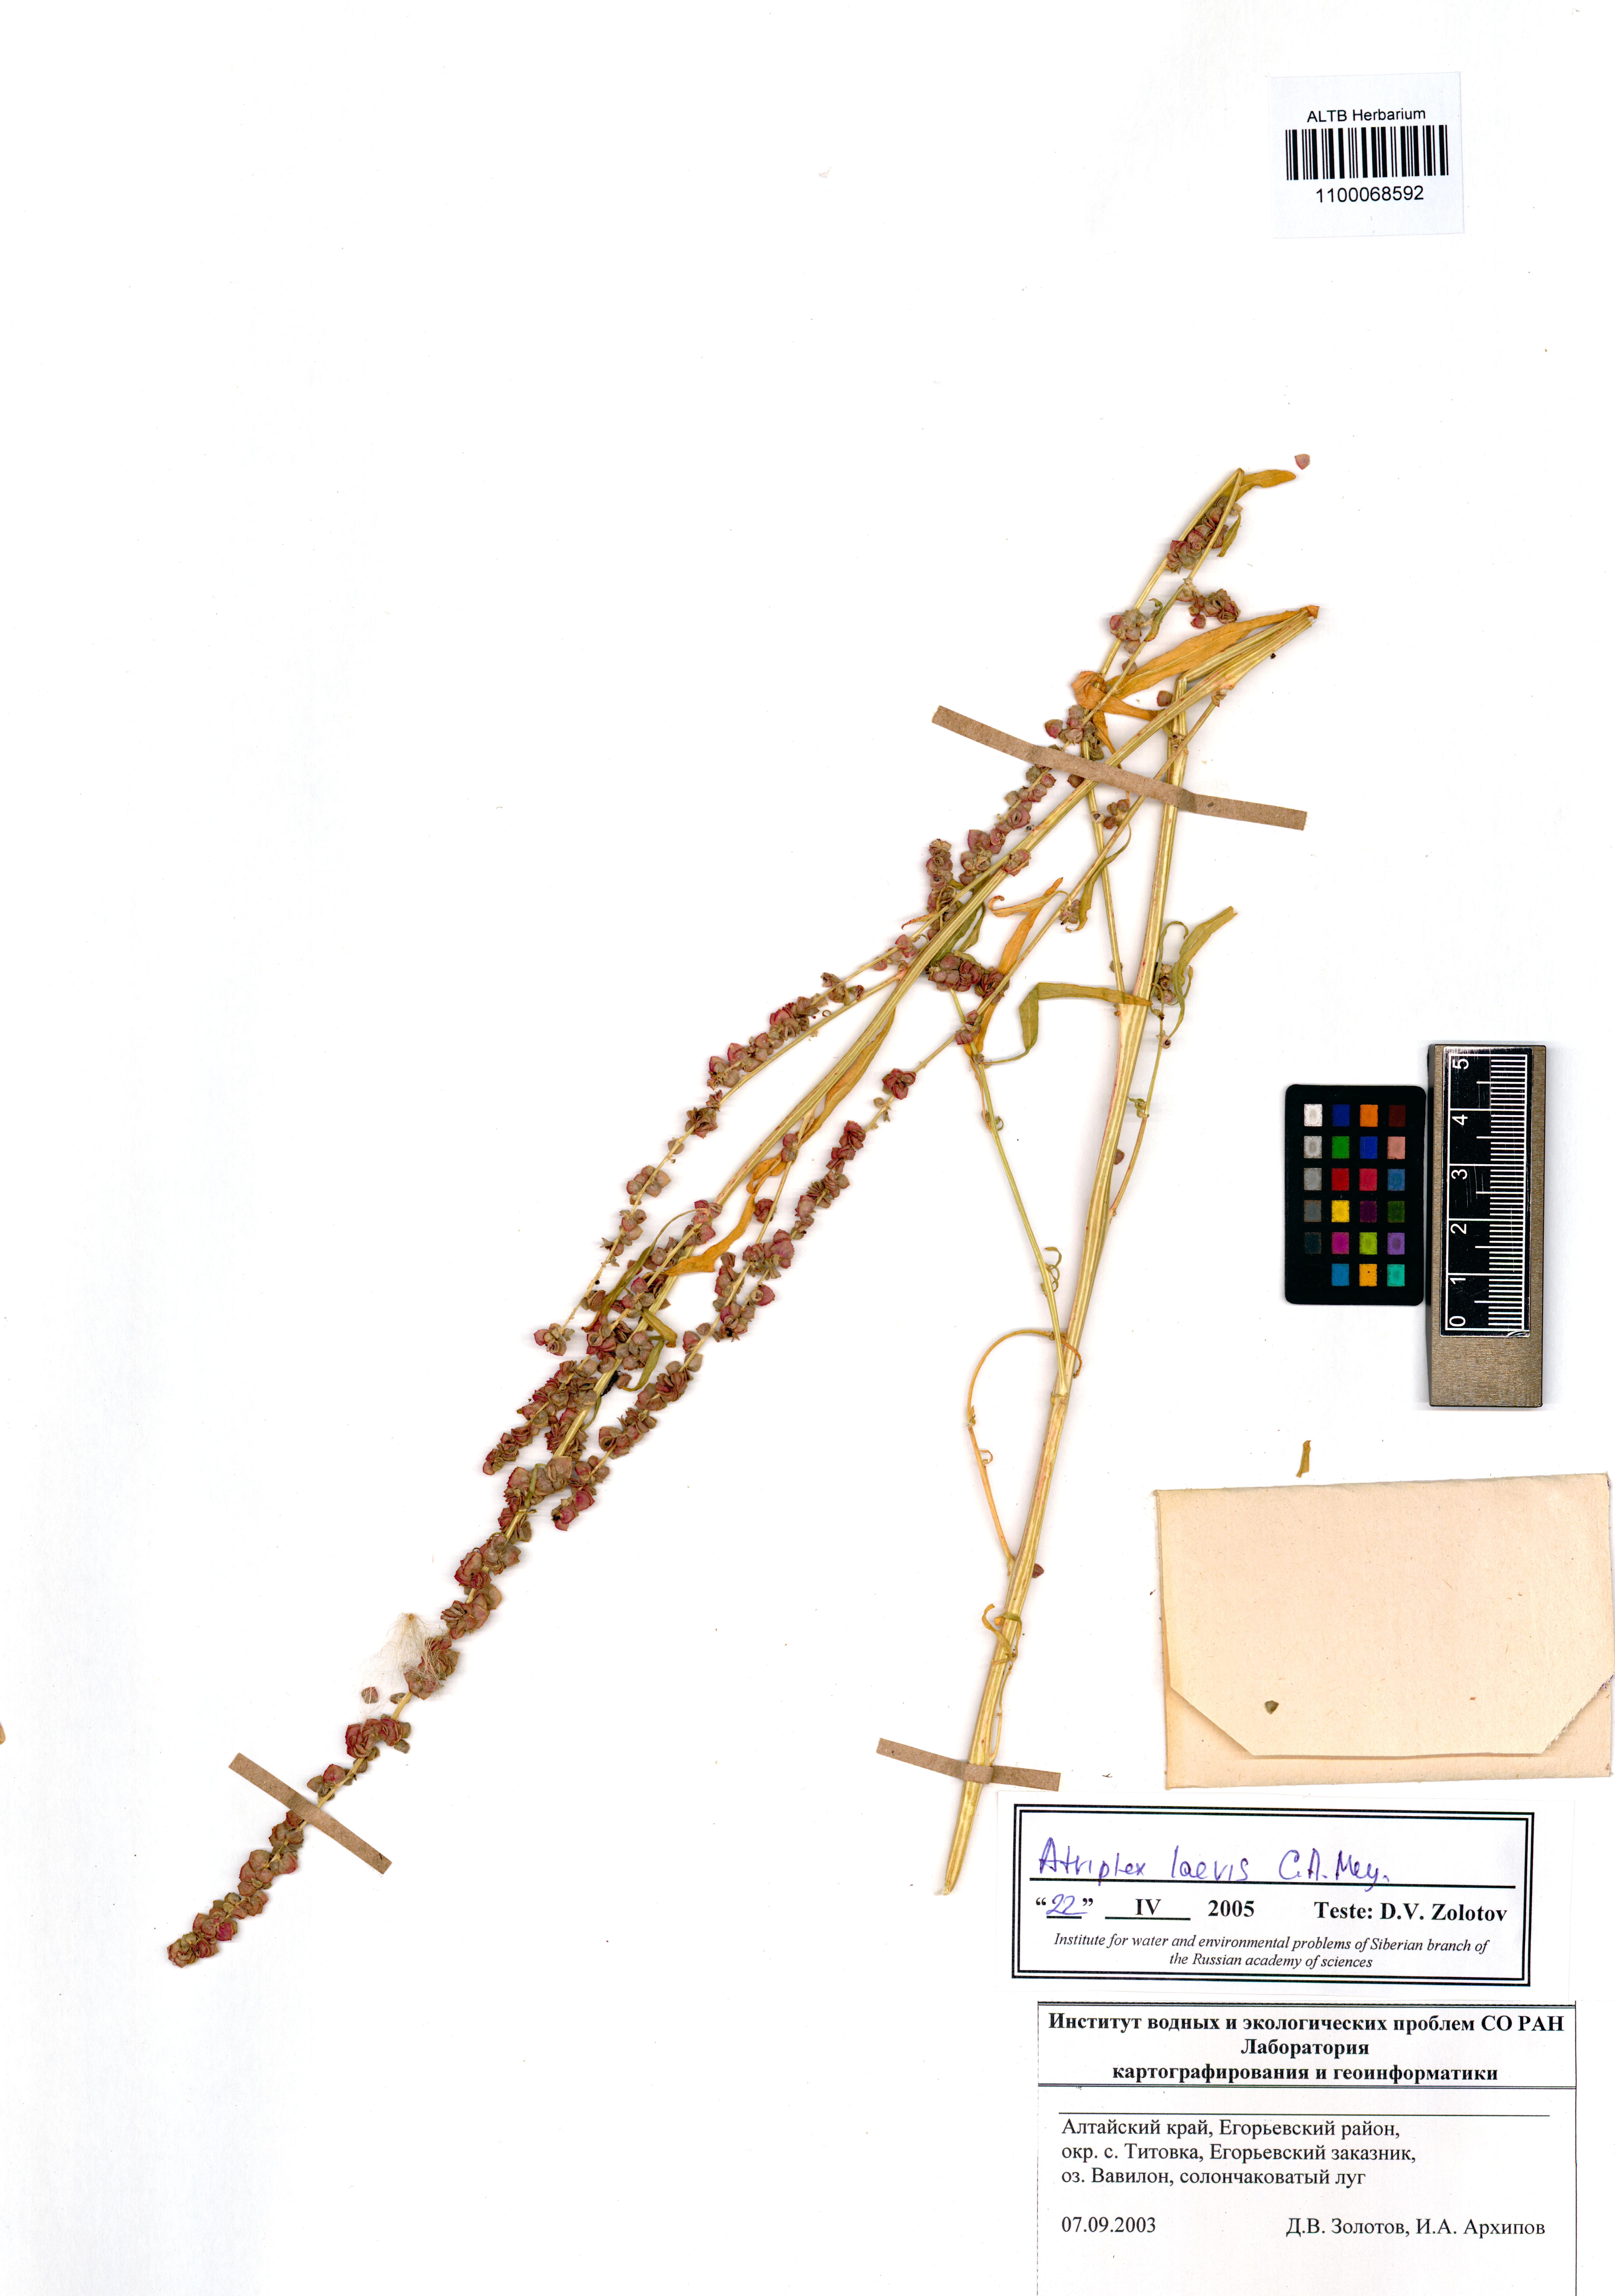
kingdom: Plantae
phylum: Tracheophyta
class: Magnoliopsida
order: Caryophyllales
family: Amaranthaceae
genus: Atriplex
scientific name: Atriplex laevis
